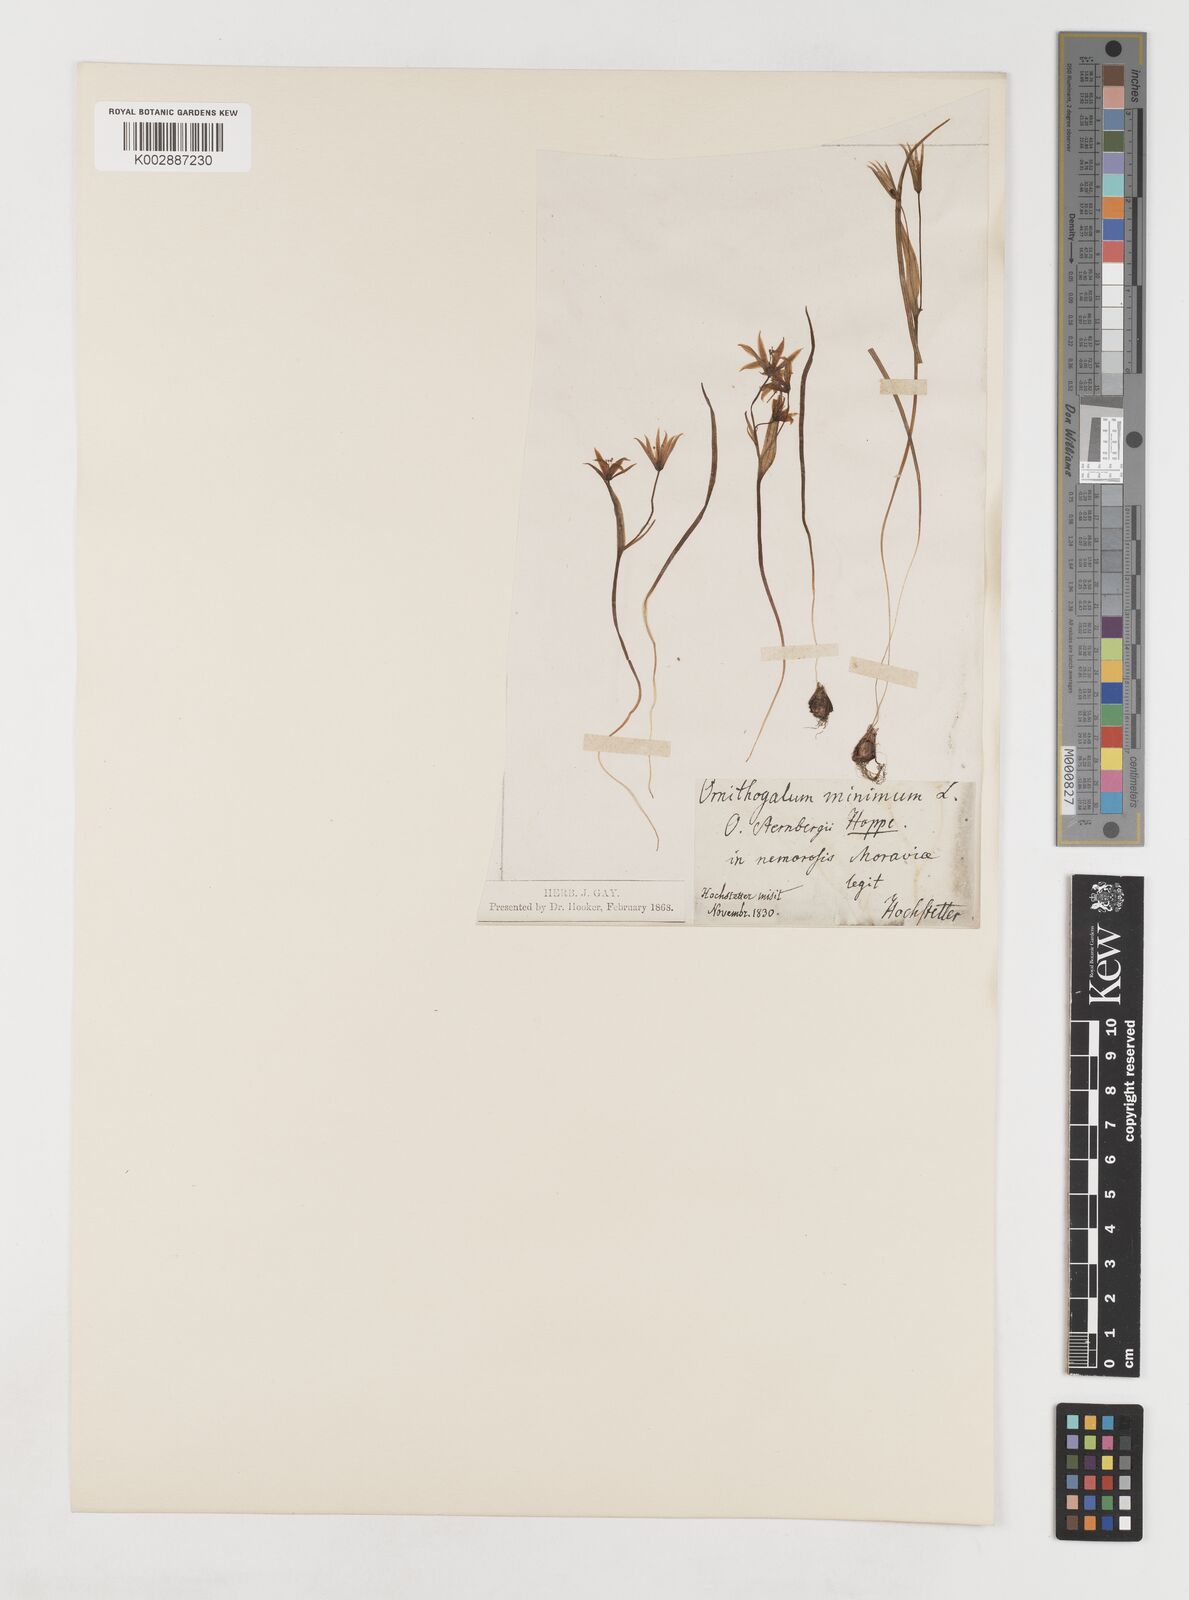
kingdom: Plantae
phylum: Tracheophyta
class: Liliopsida
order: Liliales
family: Liliaceae
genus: Gagea
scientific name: Gagea minima
